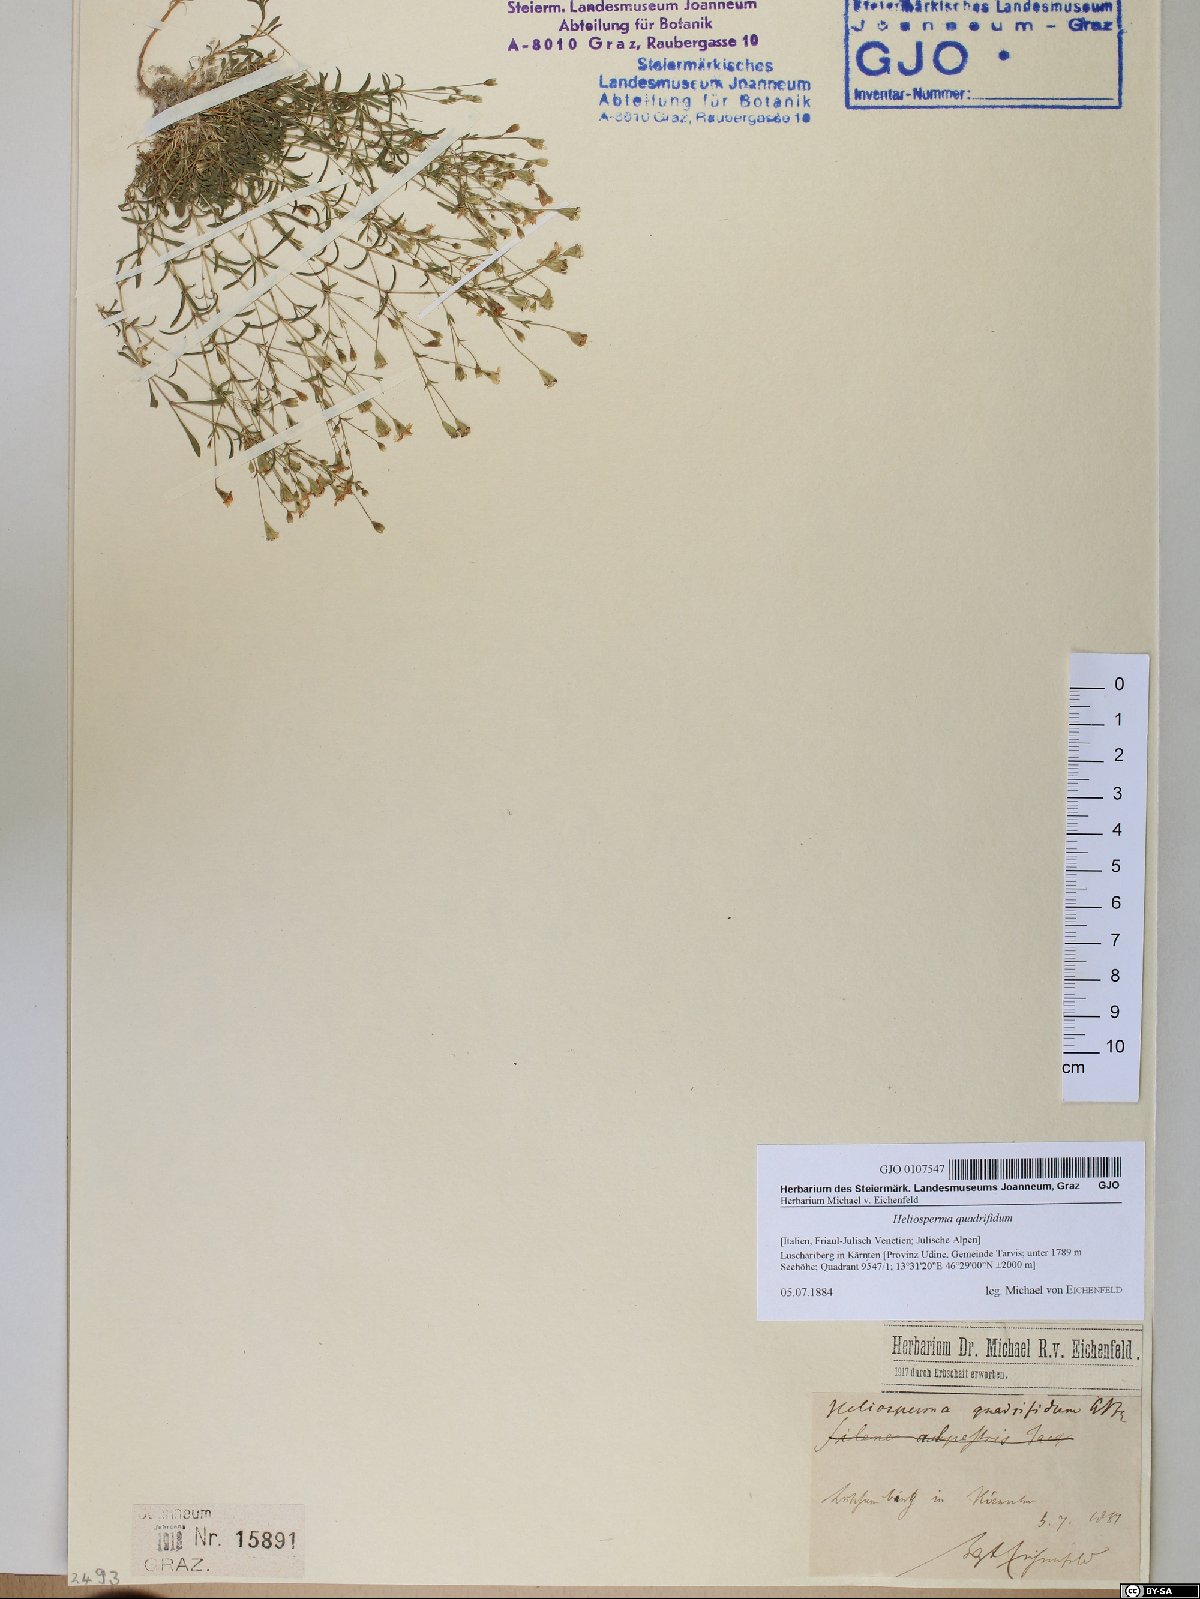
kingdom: Plantae
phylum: Tracheophyta
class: Magnoliopsida
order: Caryophyllales
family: Caryophyllaceae
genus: Heliosperma
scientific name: Heliosperma alpestre
